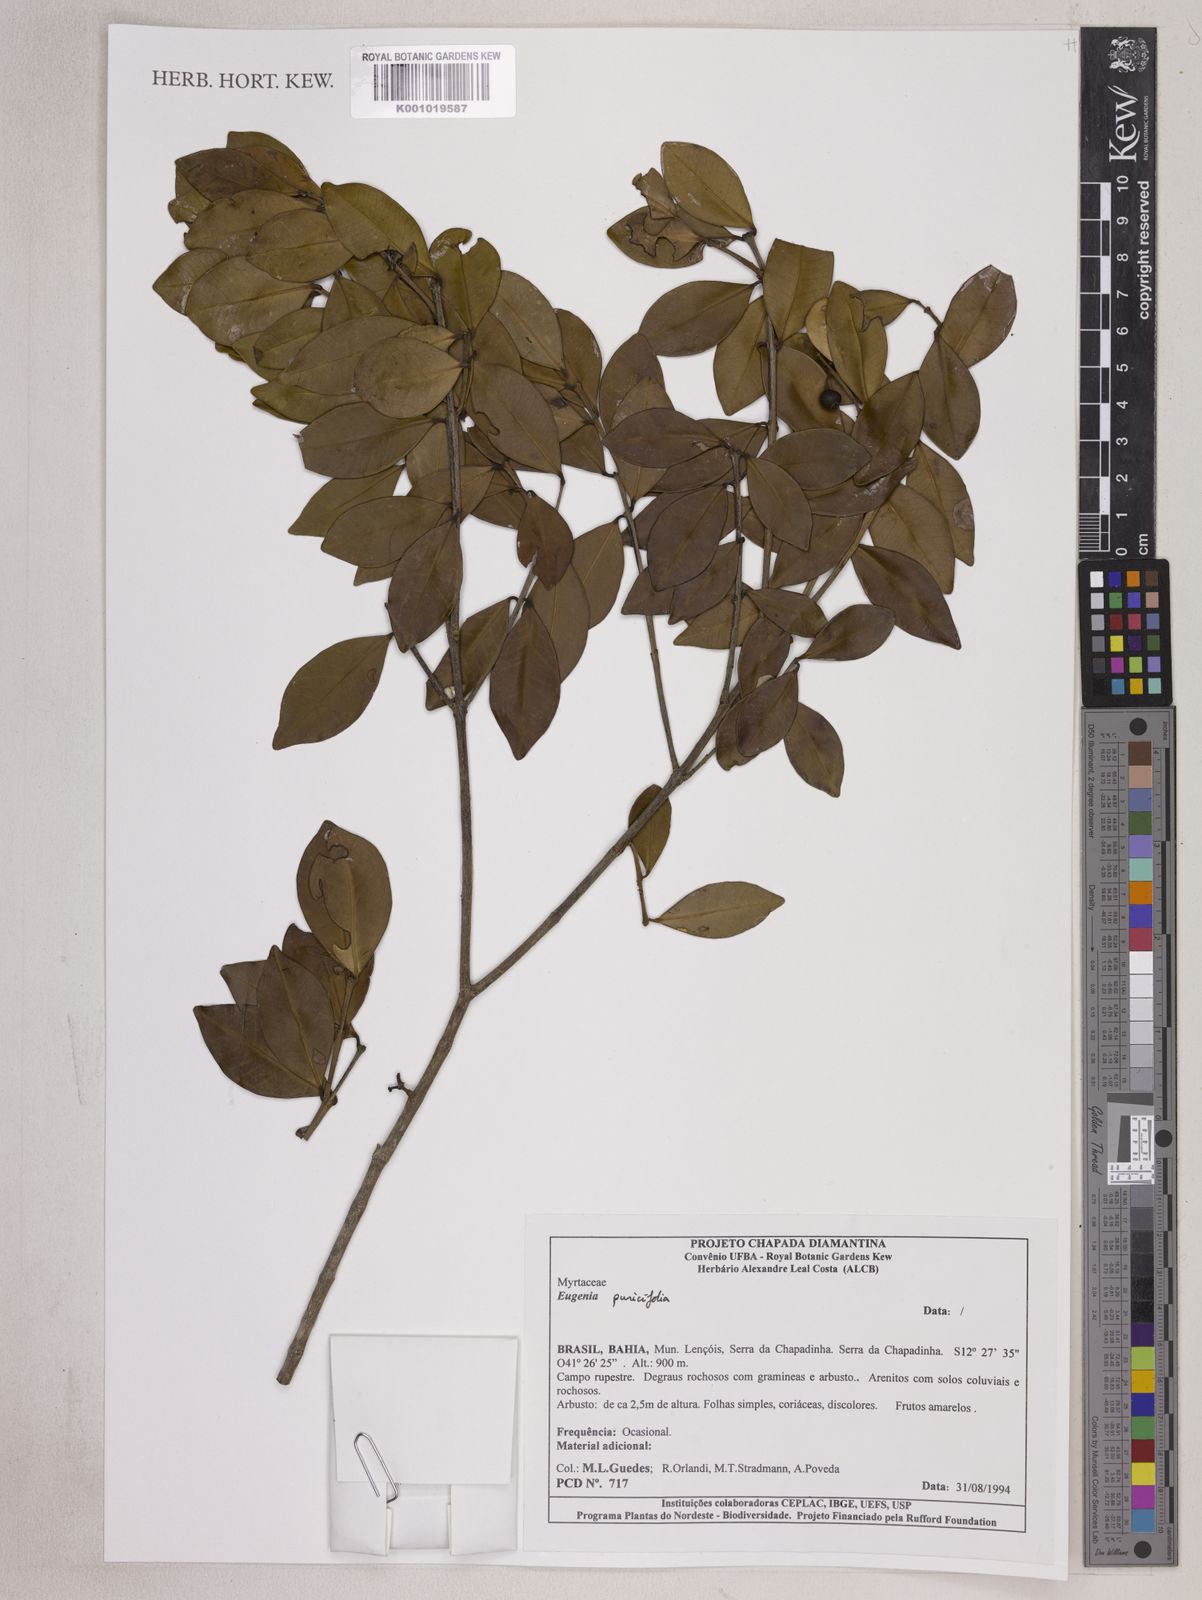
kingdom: Plantae
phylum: Tracheophyta
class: Magnoliopsida
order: Myrtales
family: Myrtaceae
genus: Eugenia
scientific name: Eugenia punicifolia
